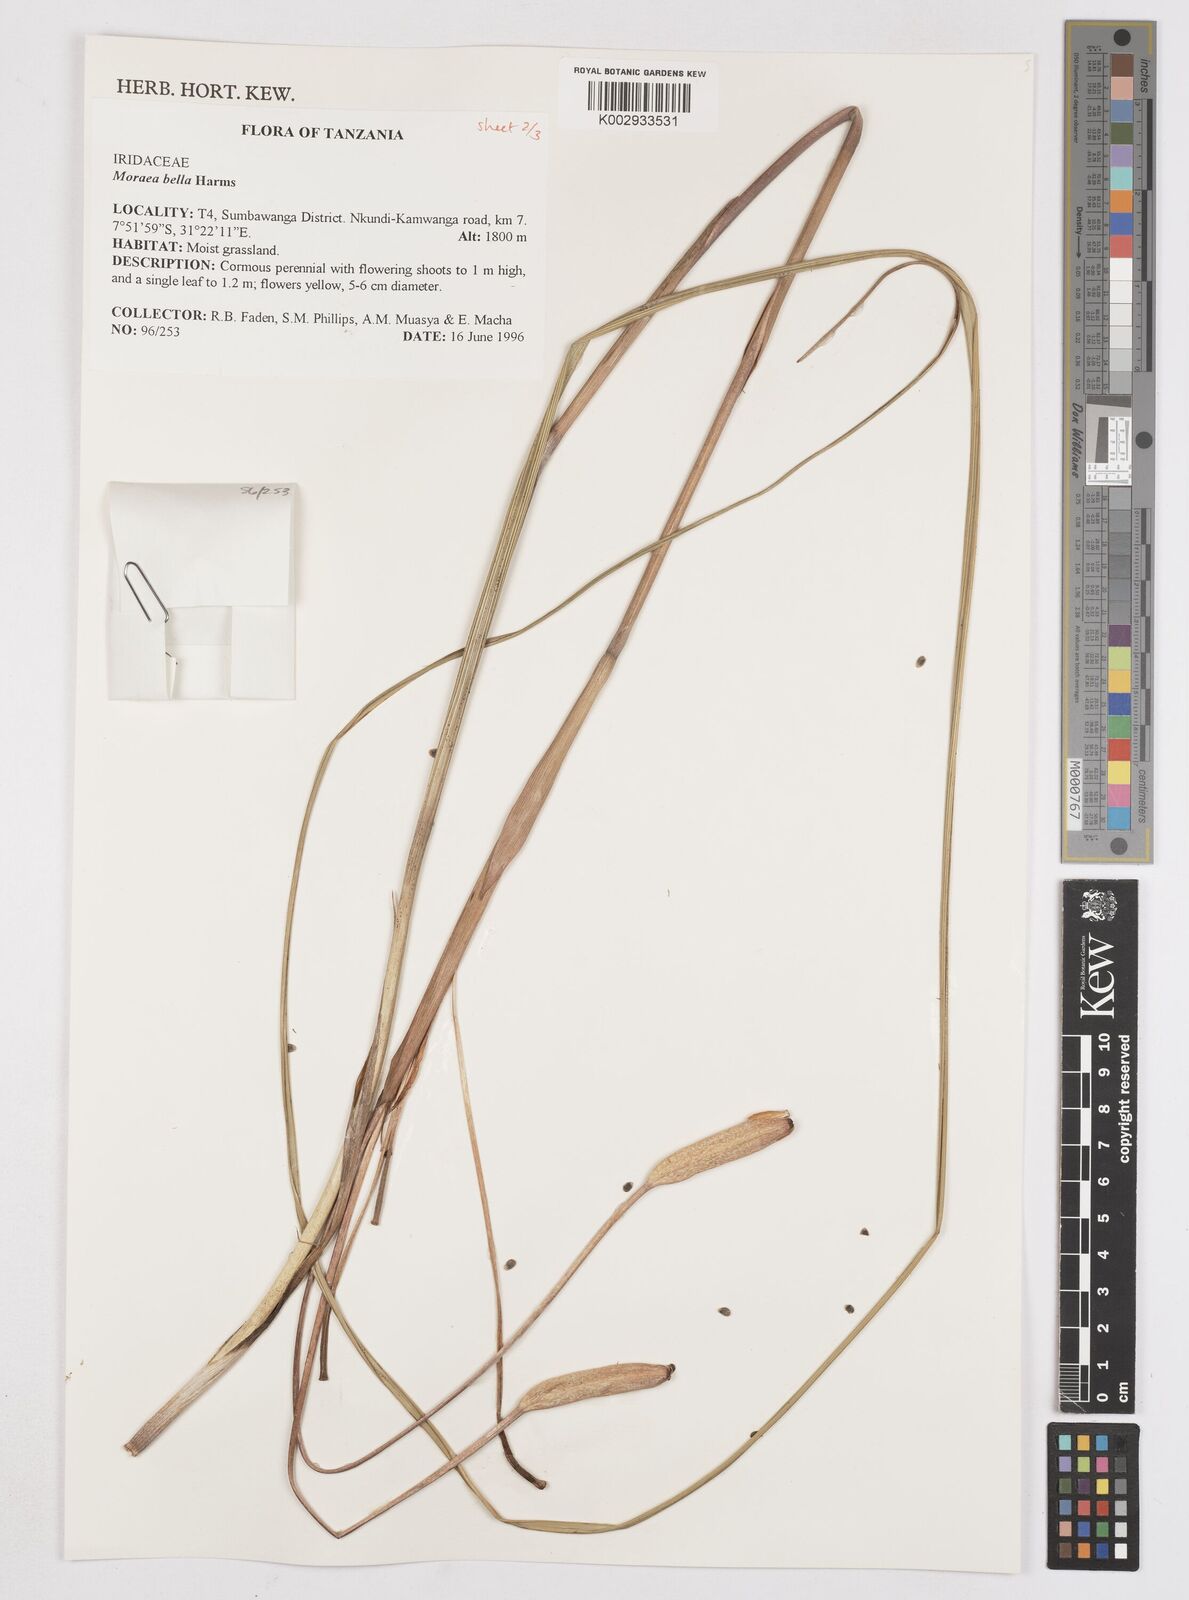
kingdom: Plantae
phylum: Tracheophyta
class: Liliopsida
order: Asparagales
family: Iridaceae
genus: Moraea
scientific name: Moraea bella
